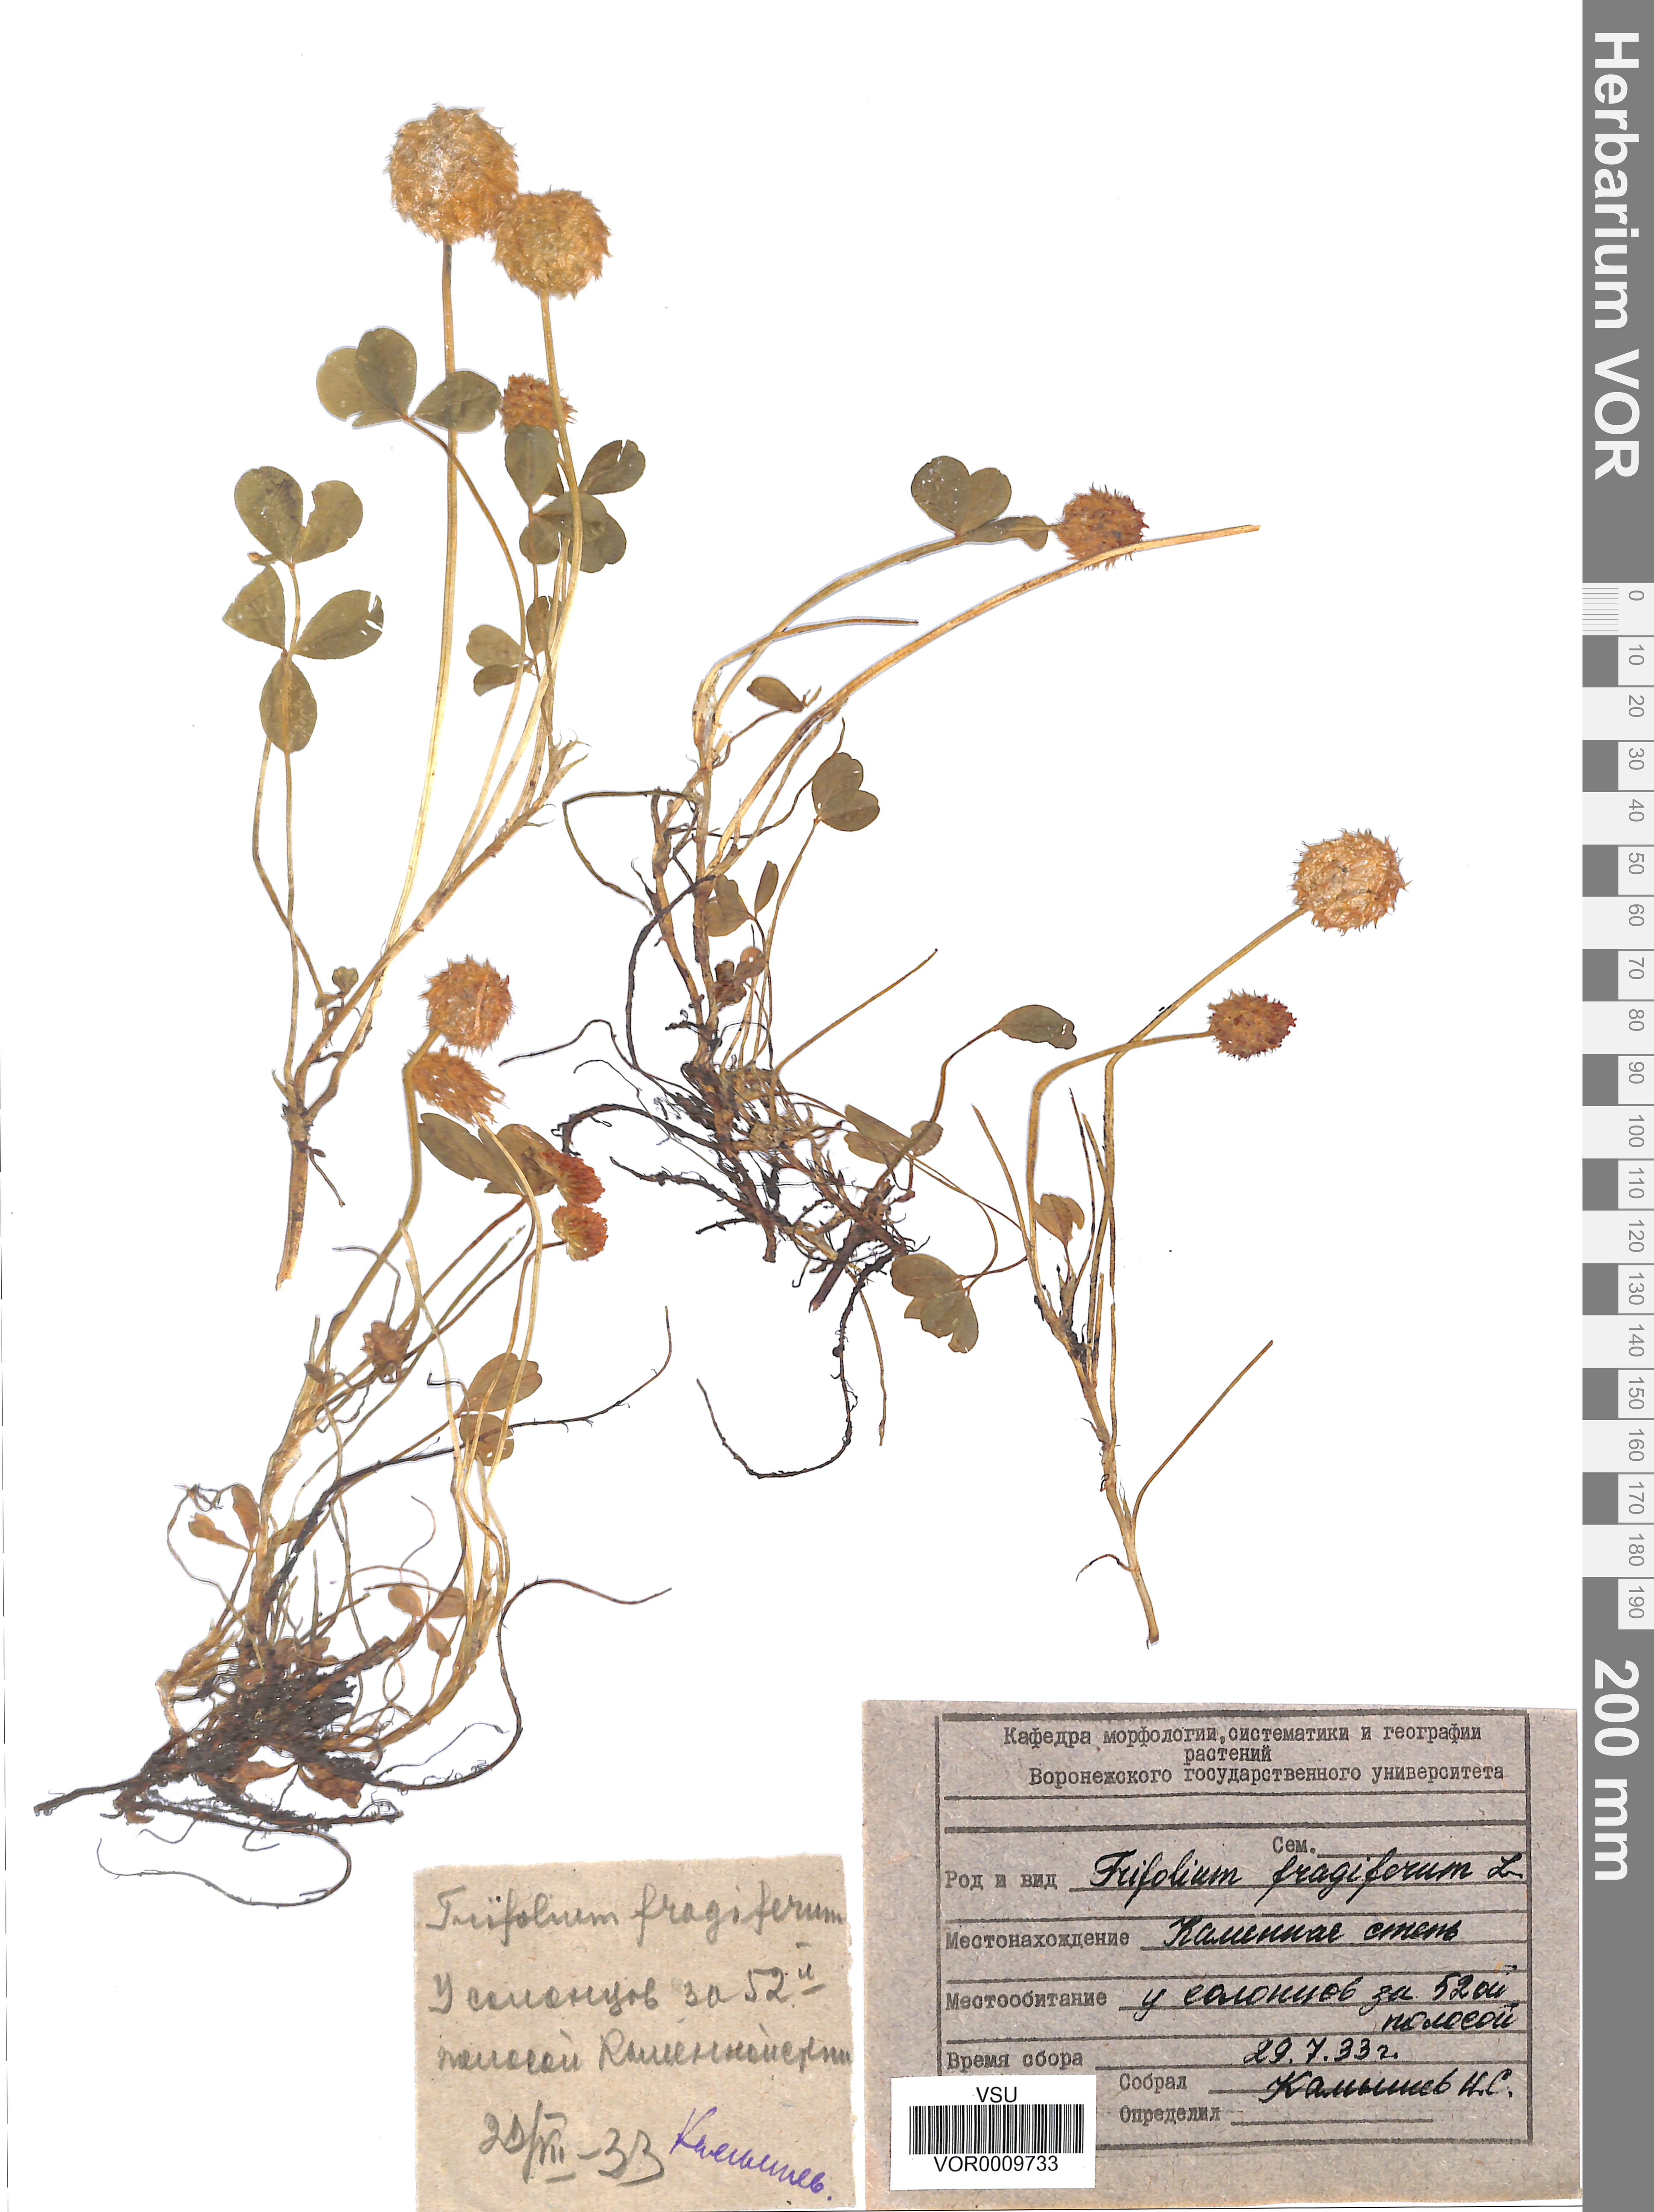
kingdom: Plantae
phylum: Tracheophyta
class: Magnoliopsida
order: Fabales
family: Fabaceae
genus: Trifolium
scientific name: Trifolium fragiferum
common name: Strawberry clover
